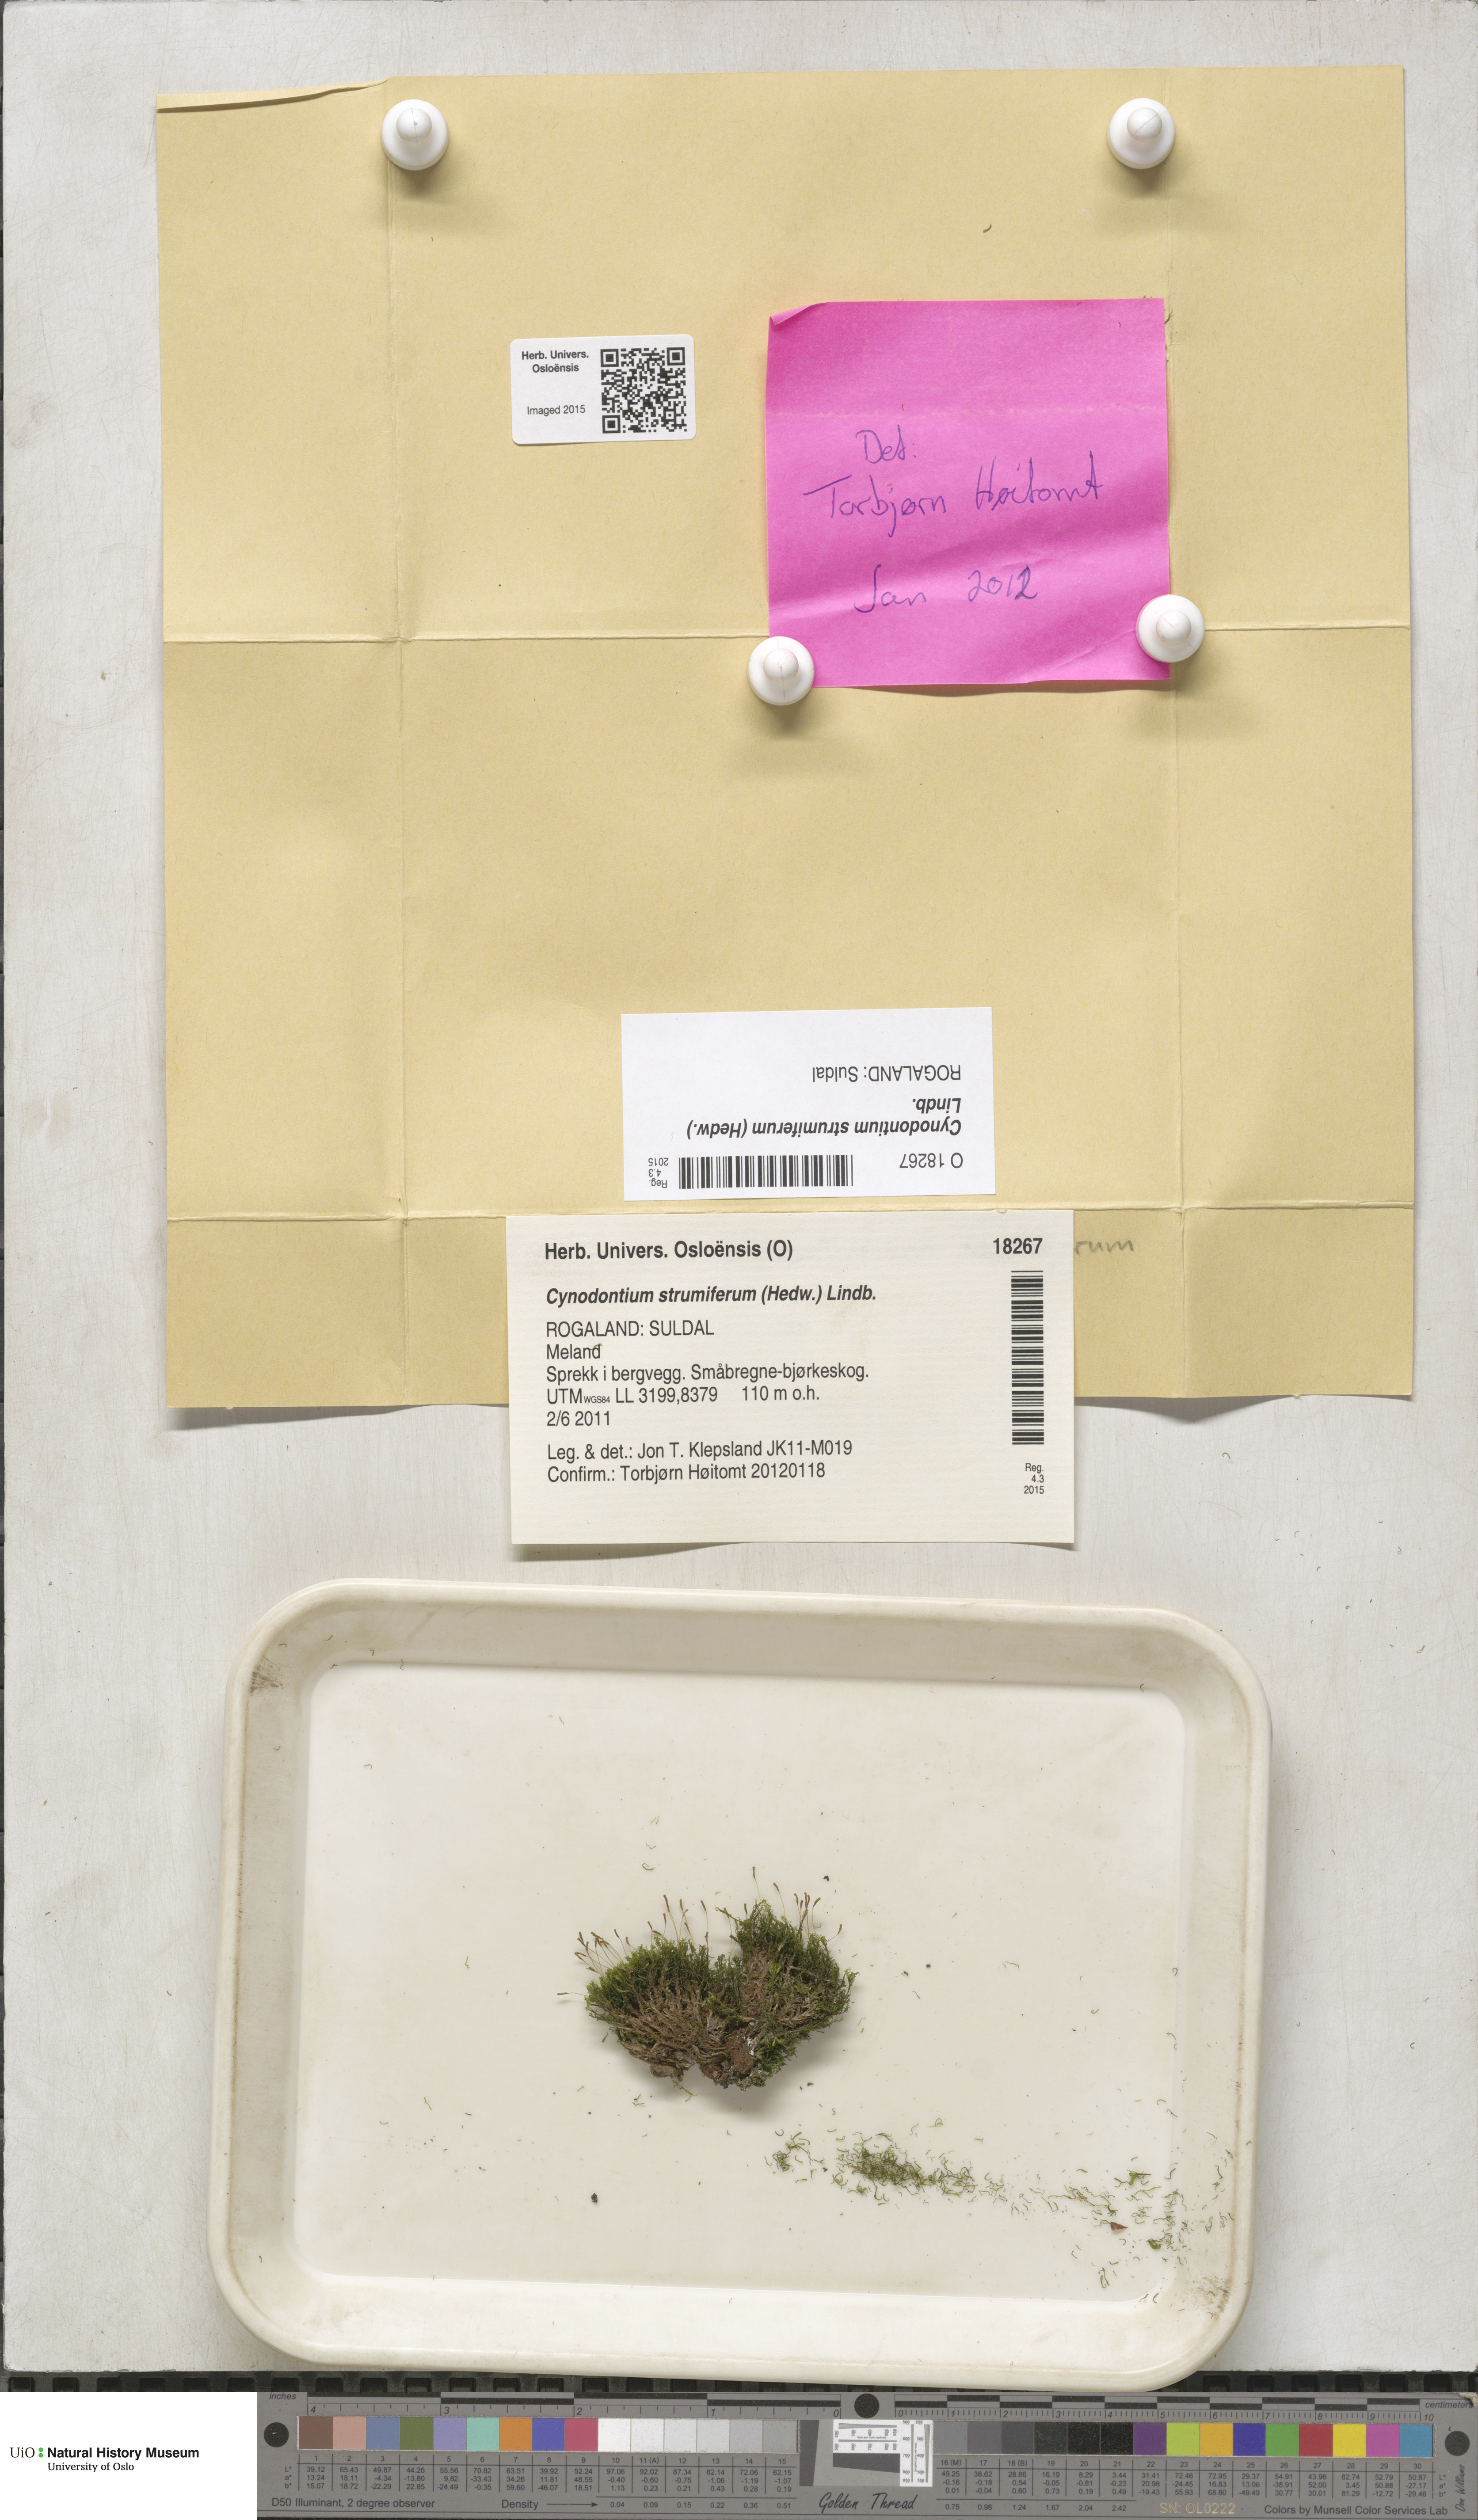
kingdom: Plantae
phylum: Bryophyta
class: Bryopsida
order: Dicranales
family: Rhabdoweisiaceae
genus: Cynodontium
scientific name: Cynodontium strumiferum
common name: Swollen dogtooth moss
